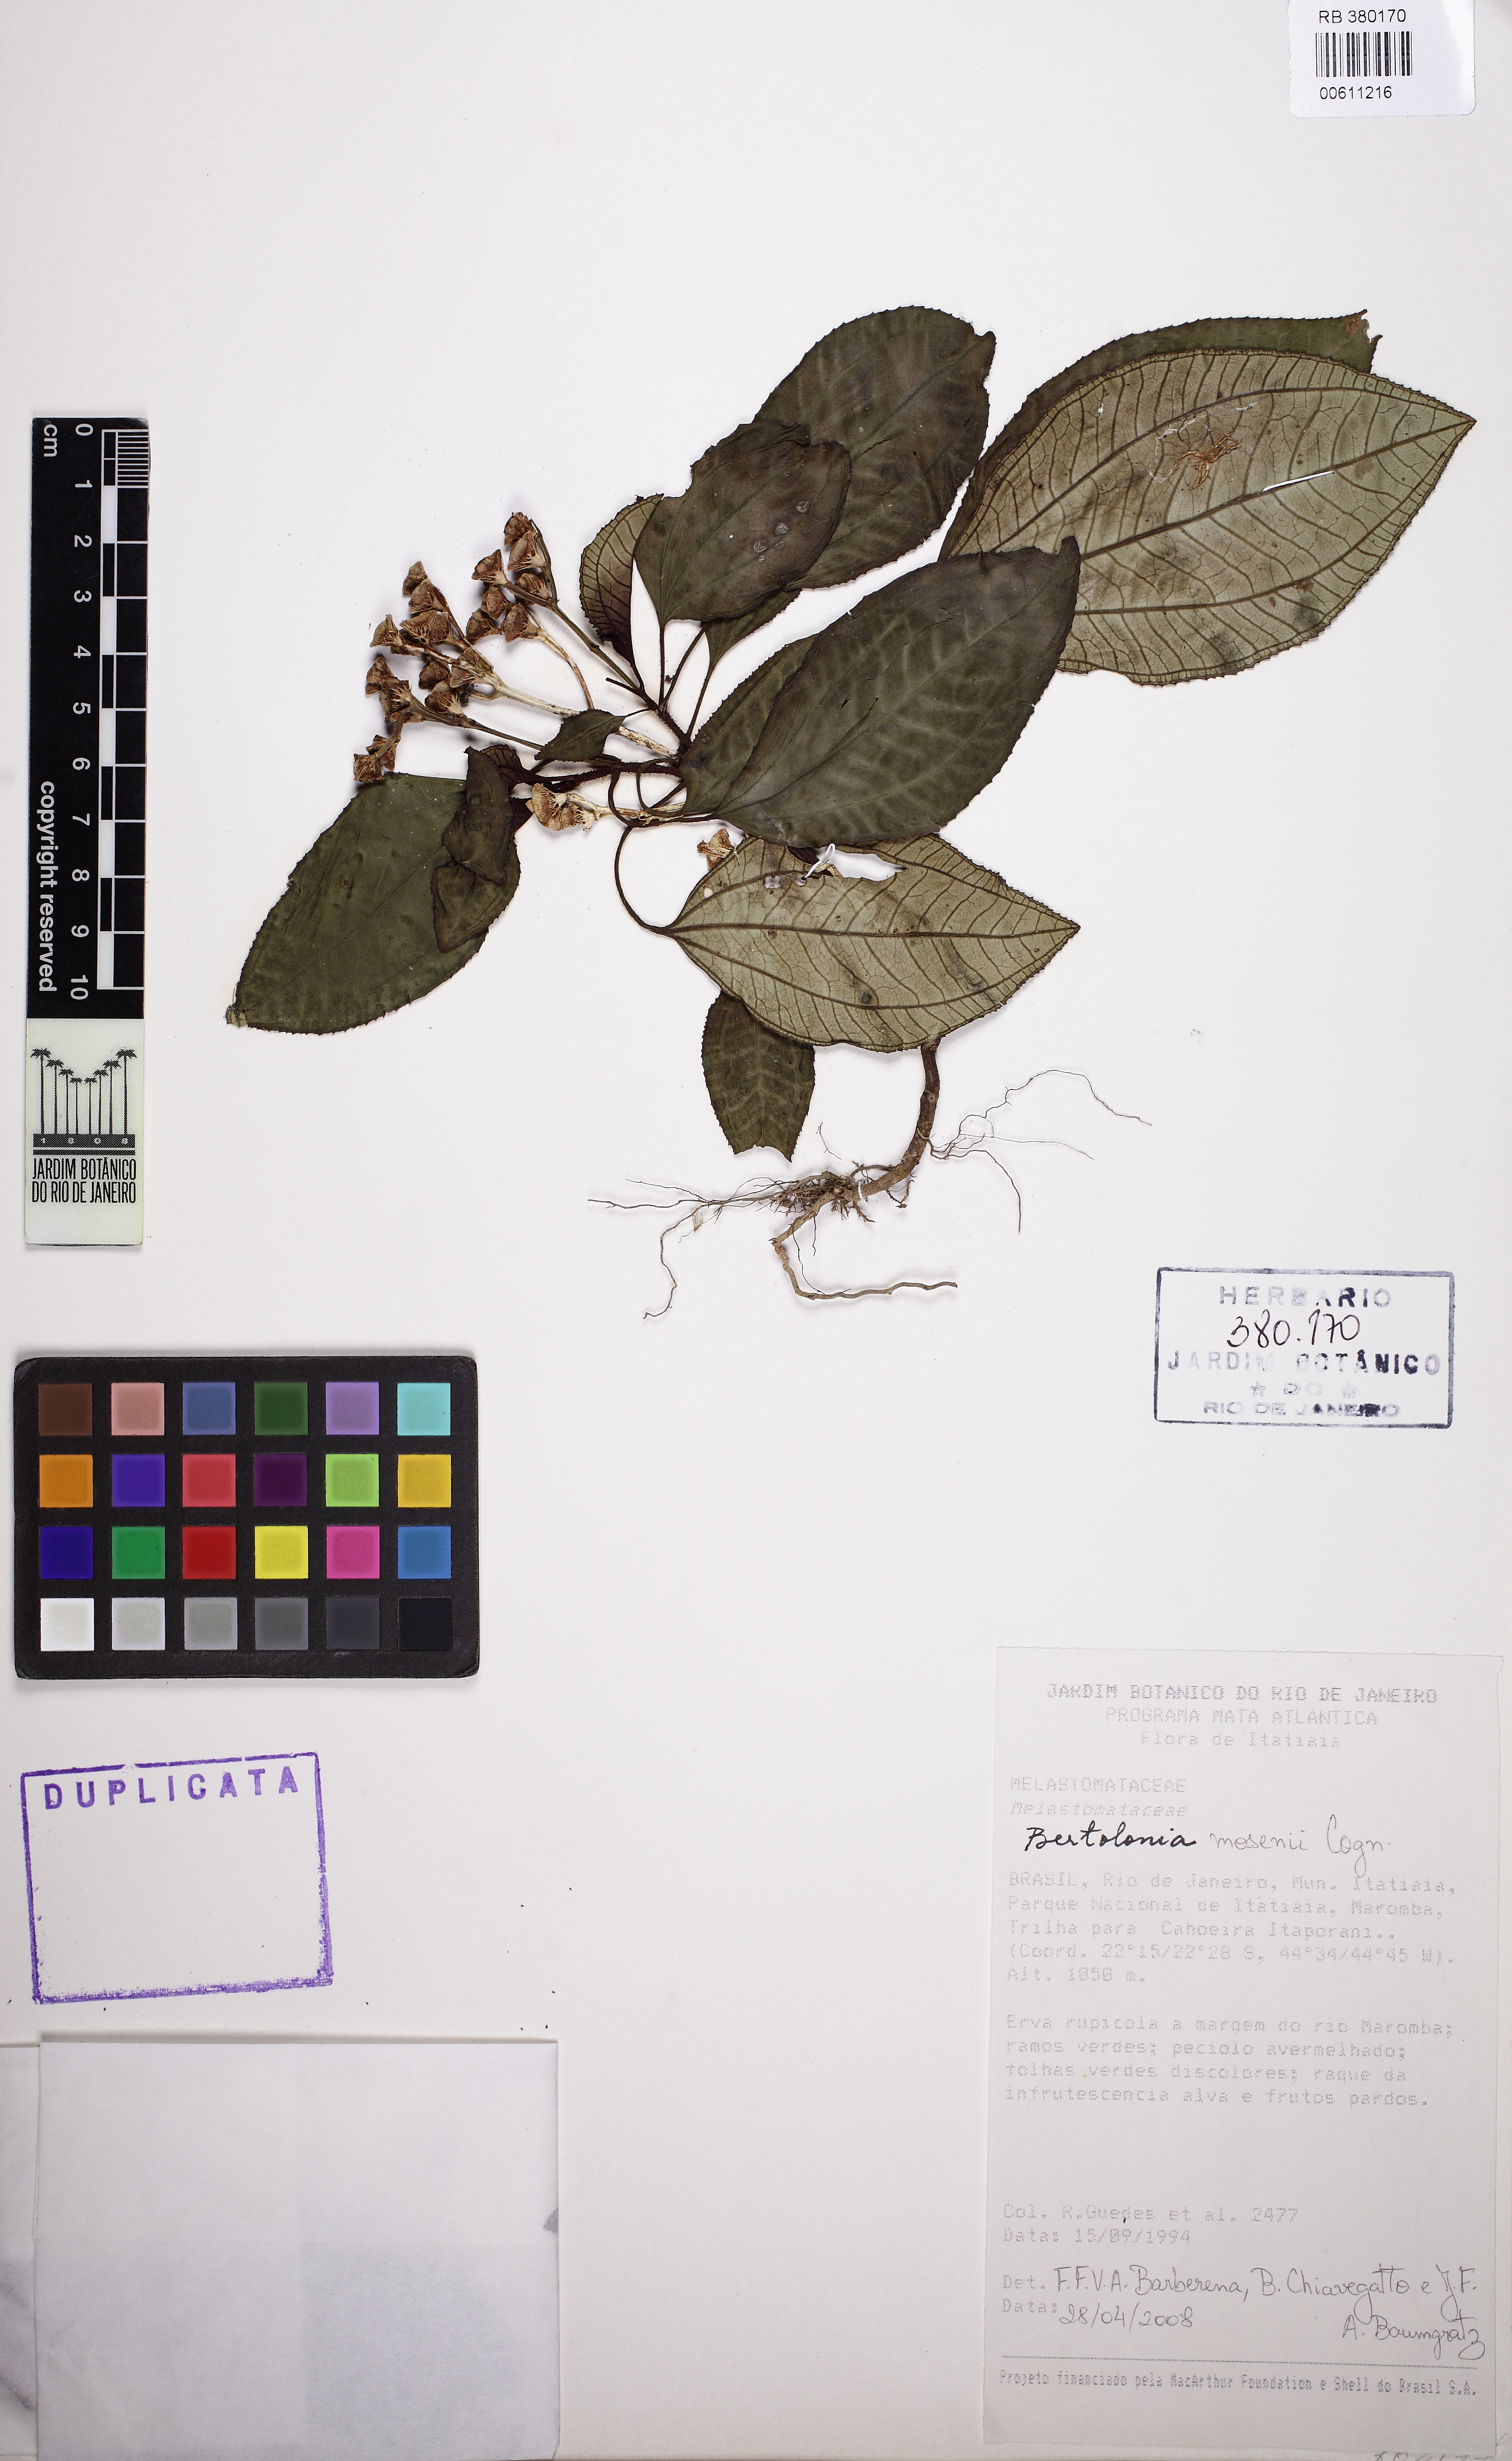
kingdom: Plantae
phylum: Tracheophyta
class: Magnoliopsida
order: Myrtales
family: Melastomataceae
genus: Bertolonia
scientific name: Bertolonia mosenii
